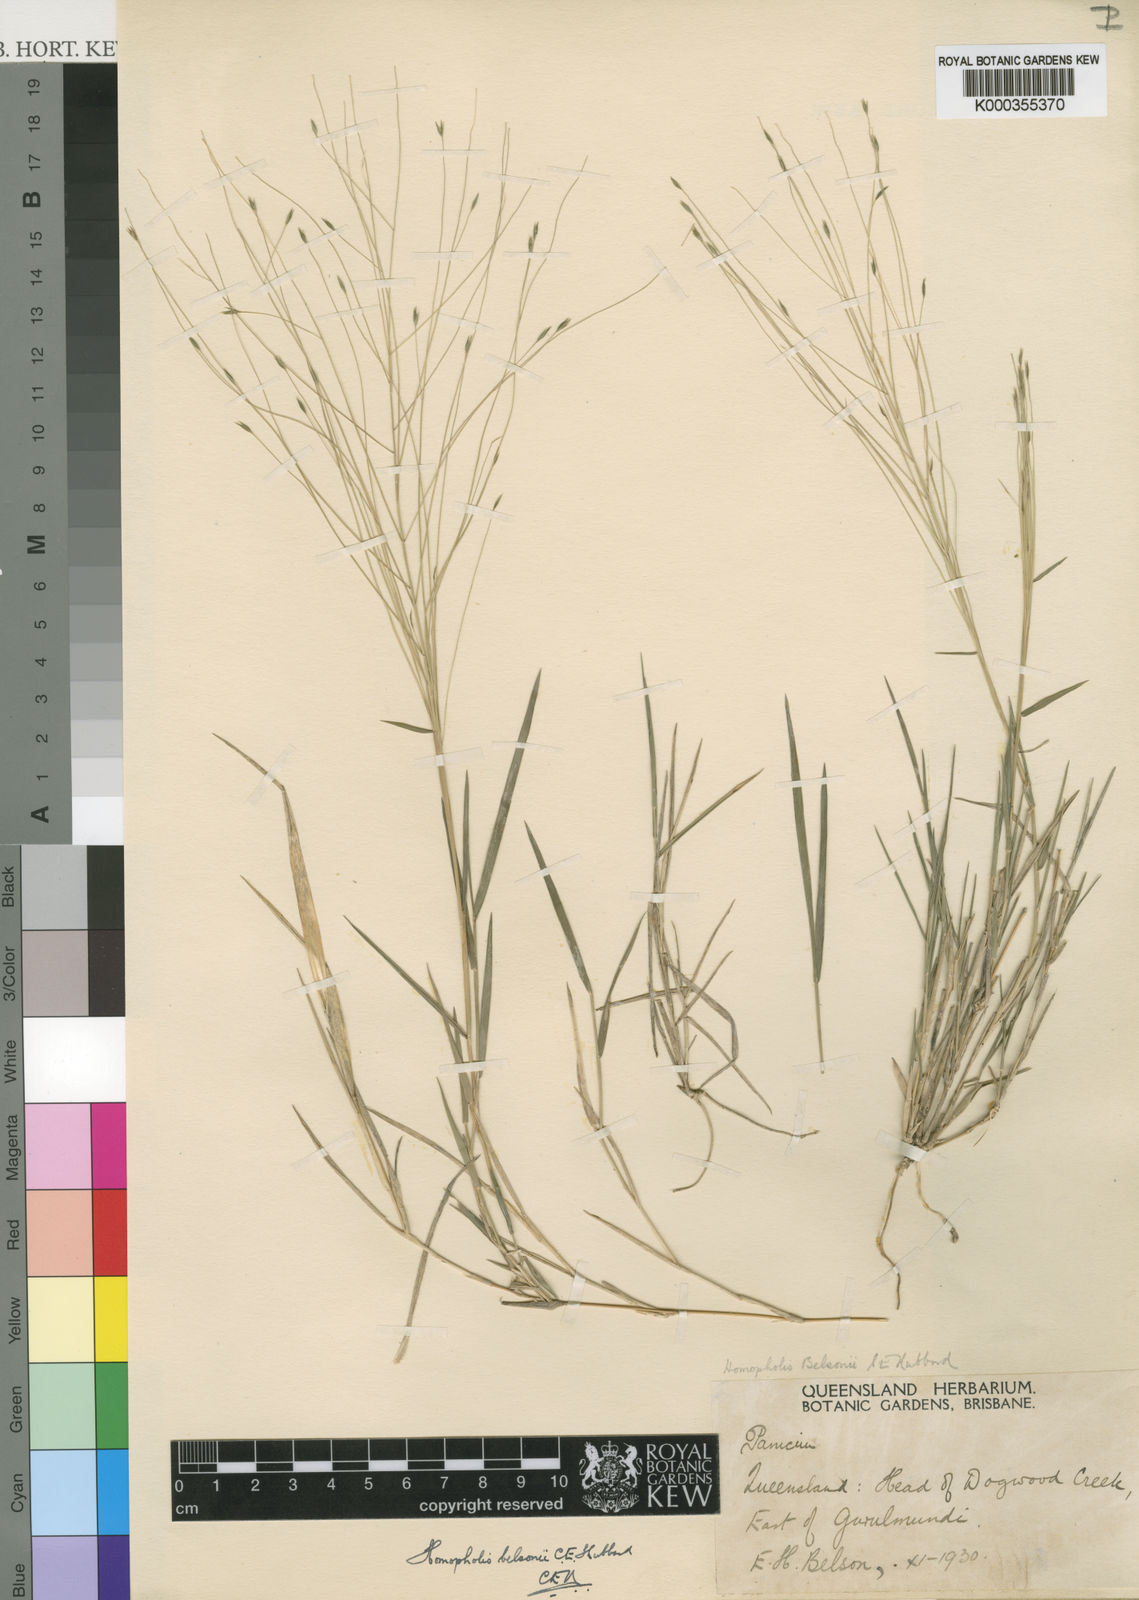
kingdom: Plantae
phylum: Tracheophyta
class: Liliopsida
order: Poales
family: Poaceae
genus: Homopholis
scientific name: Homopholis belsonii
